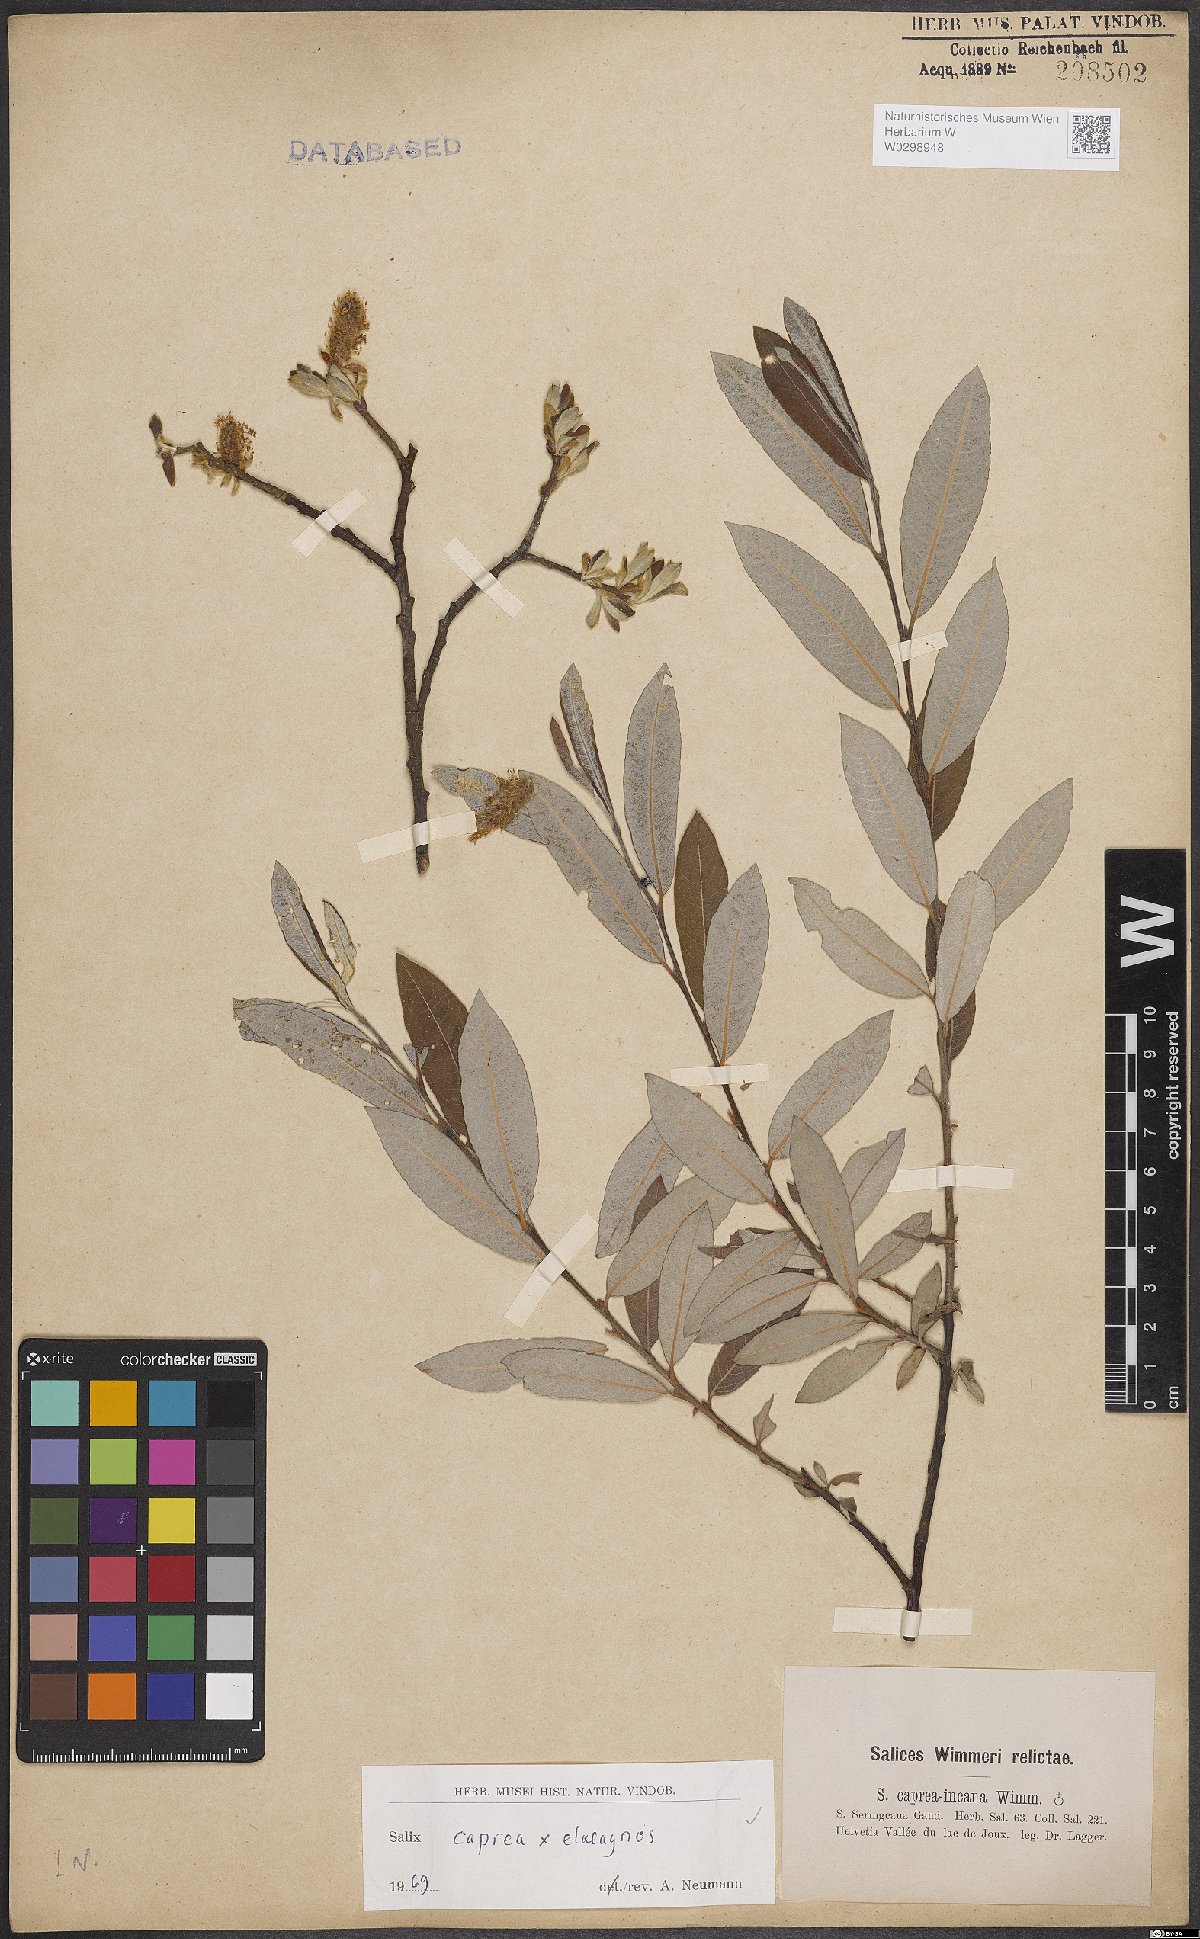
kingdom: Plantae
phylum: Tracheophyta
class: Magnoliopsida
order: Malpighiales
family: Salicaceae
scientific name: Salicaceae
